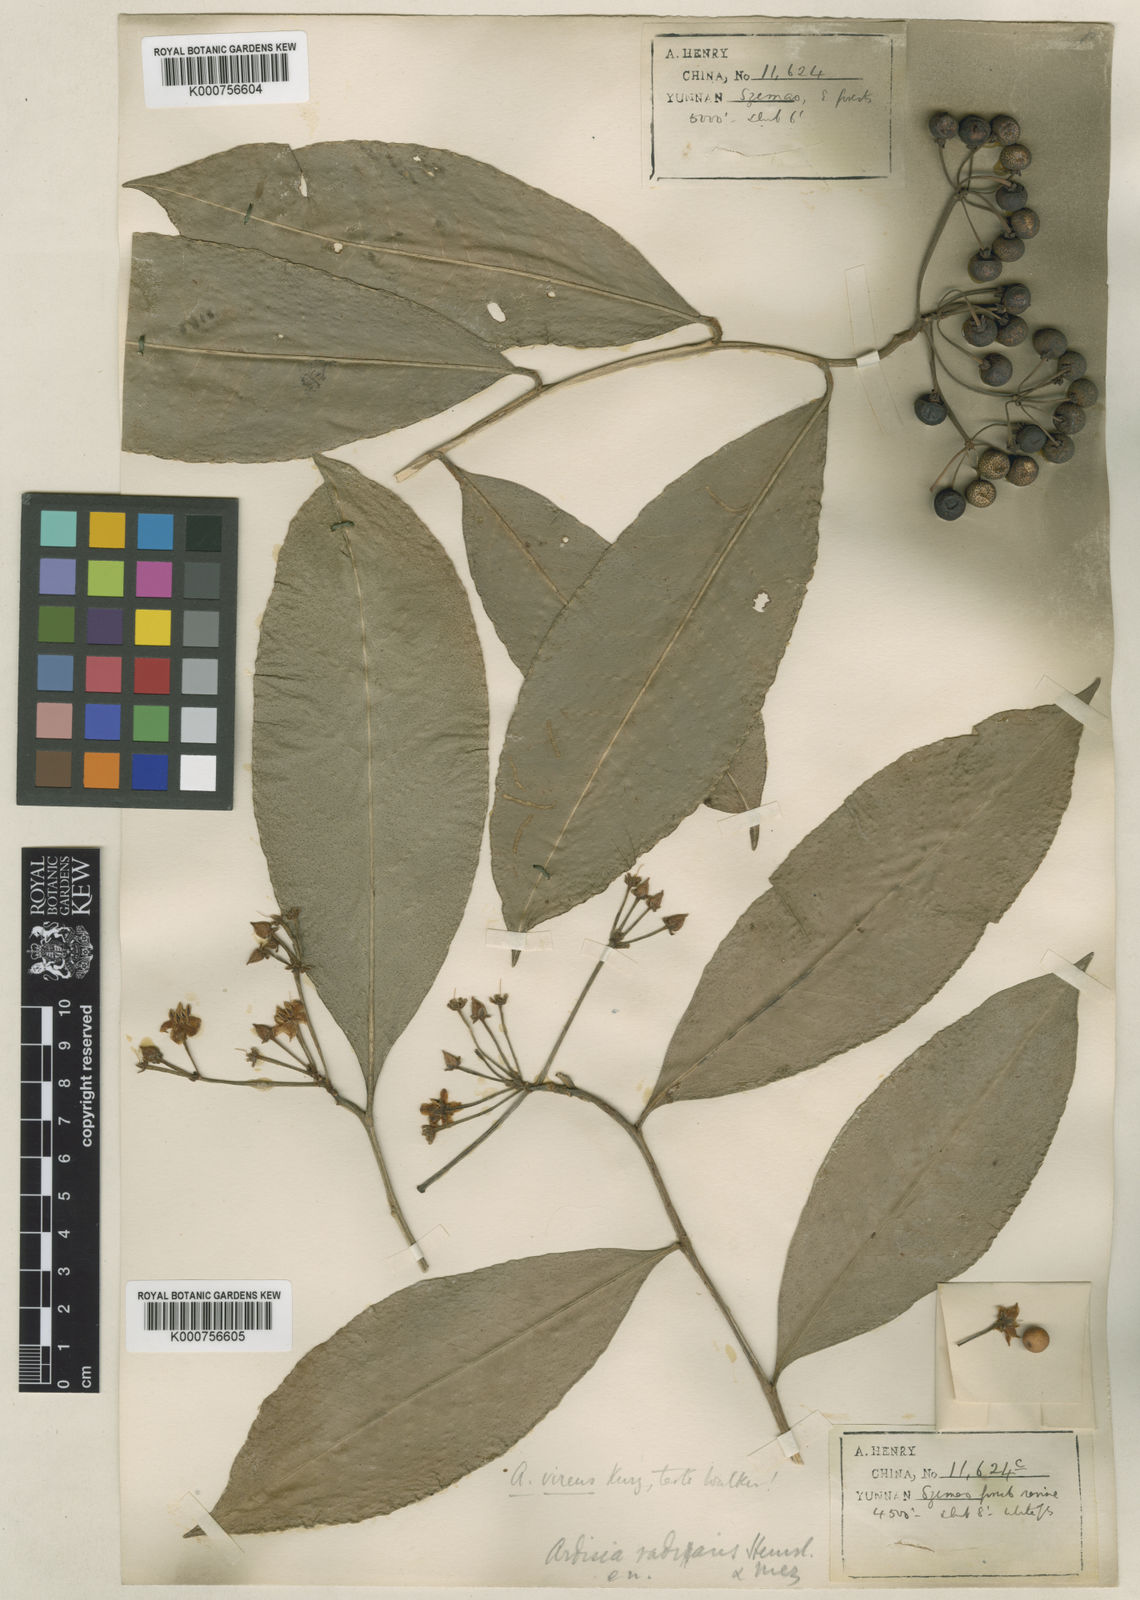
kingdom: Plantae
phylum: Tracheophyta
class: Magnoliopsida
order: Ericales
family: Primulaceae
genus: Ardisia
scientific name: Ardisia polysticta
